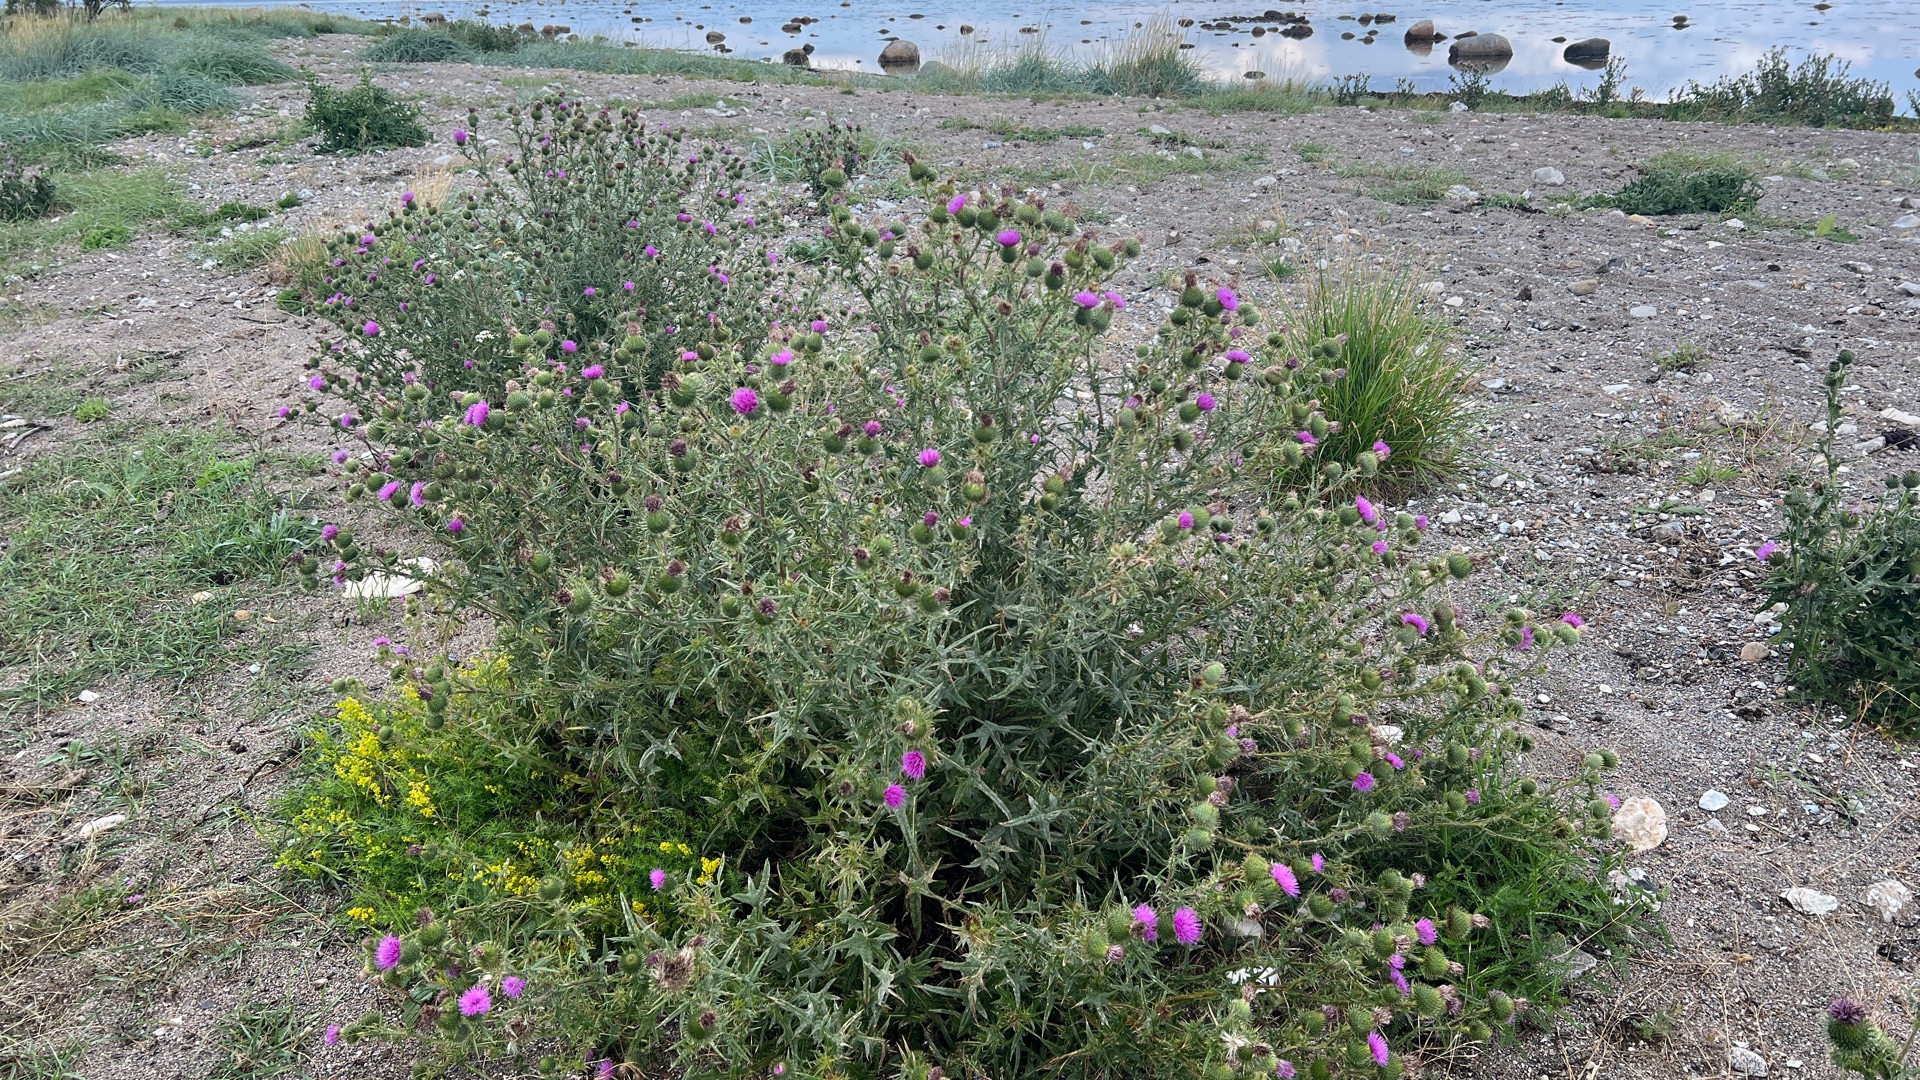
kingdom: Plantae
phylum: Tracheophyta
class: Magnoliopsida
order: Asterales
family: Asteraceae
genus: Cirsium
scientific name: Cirsium vulgare
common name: Horse-tidsel
